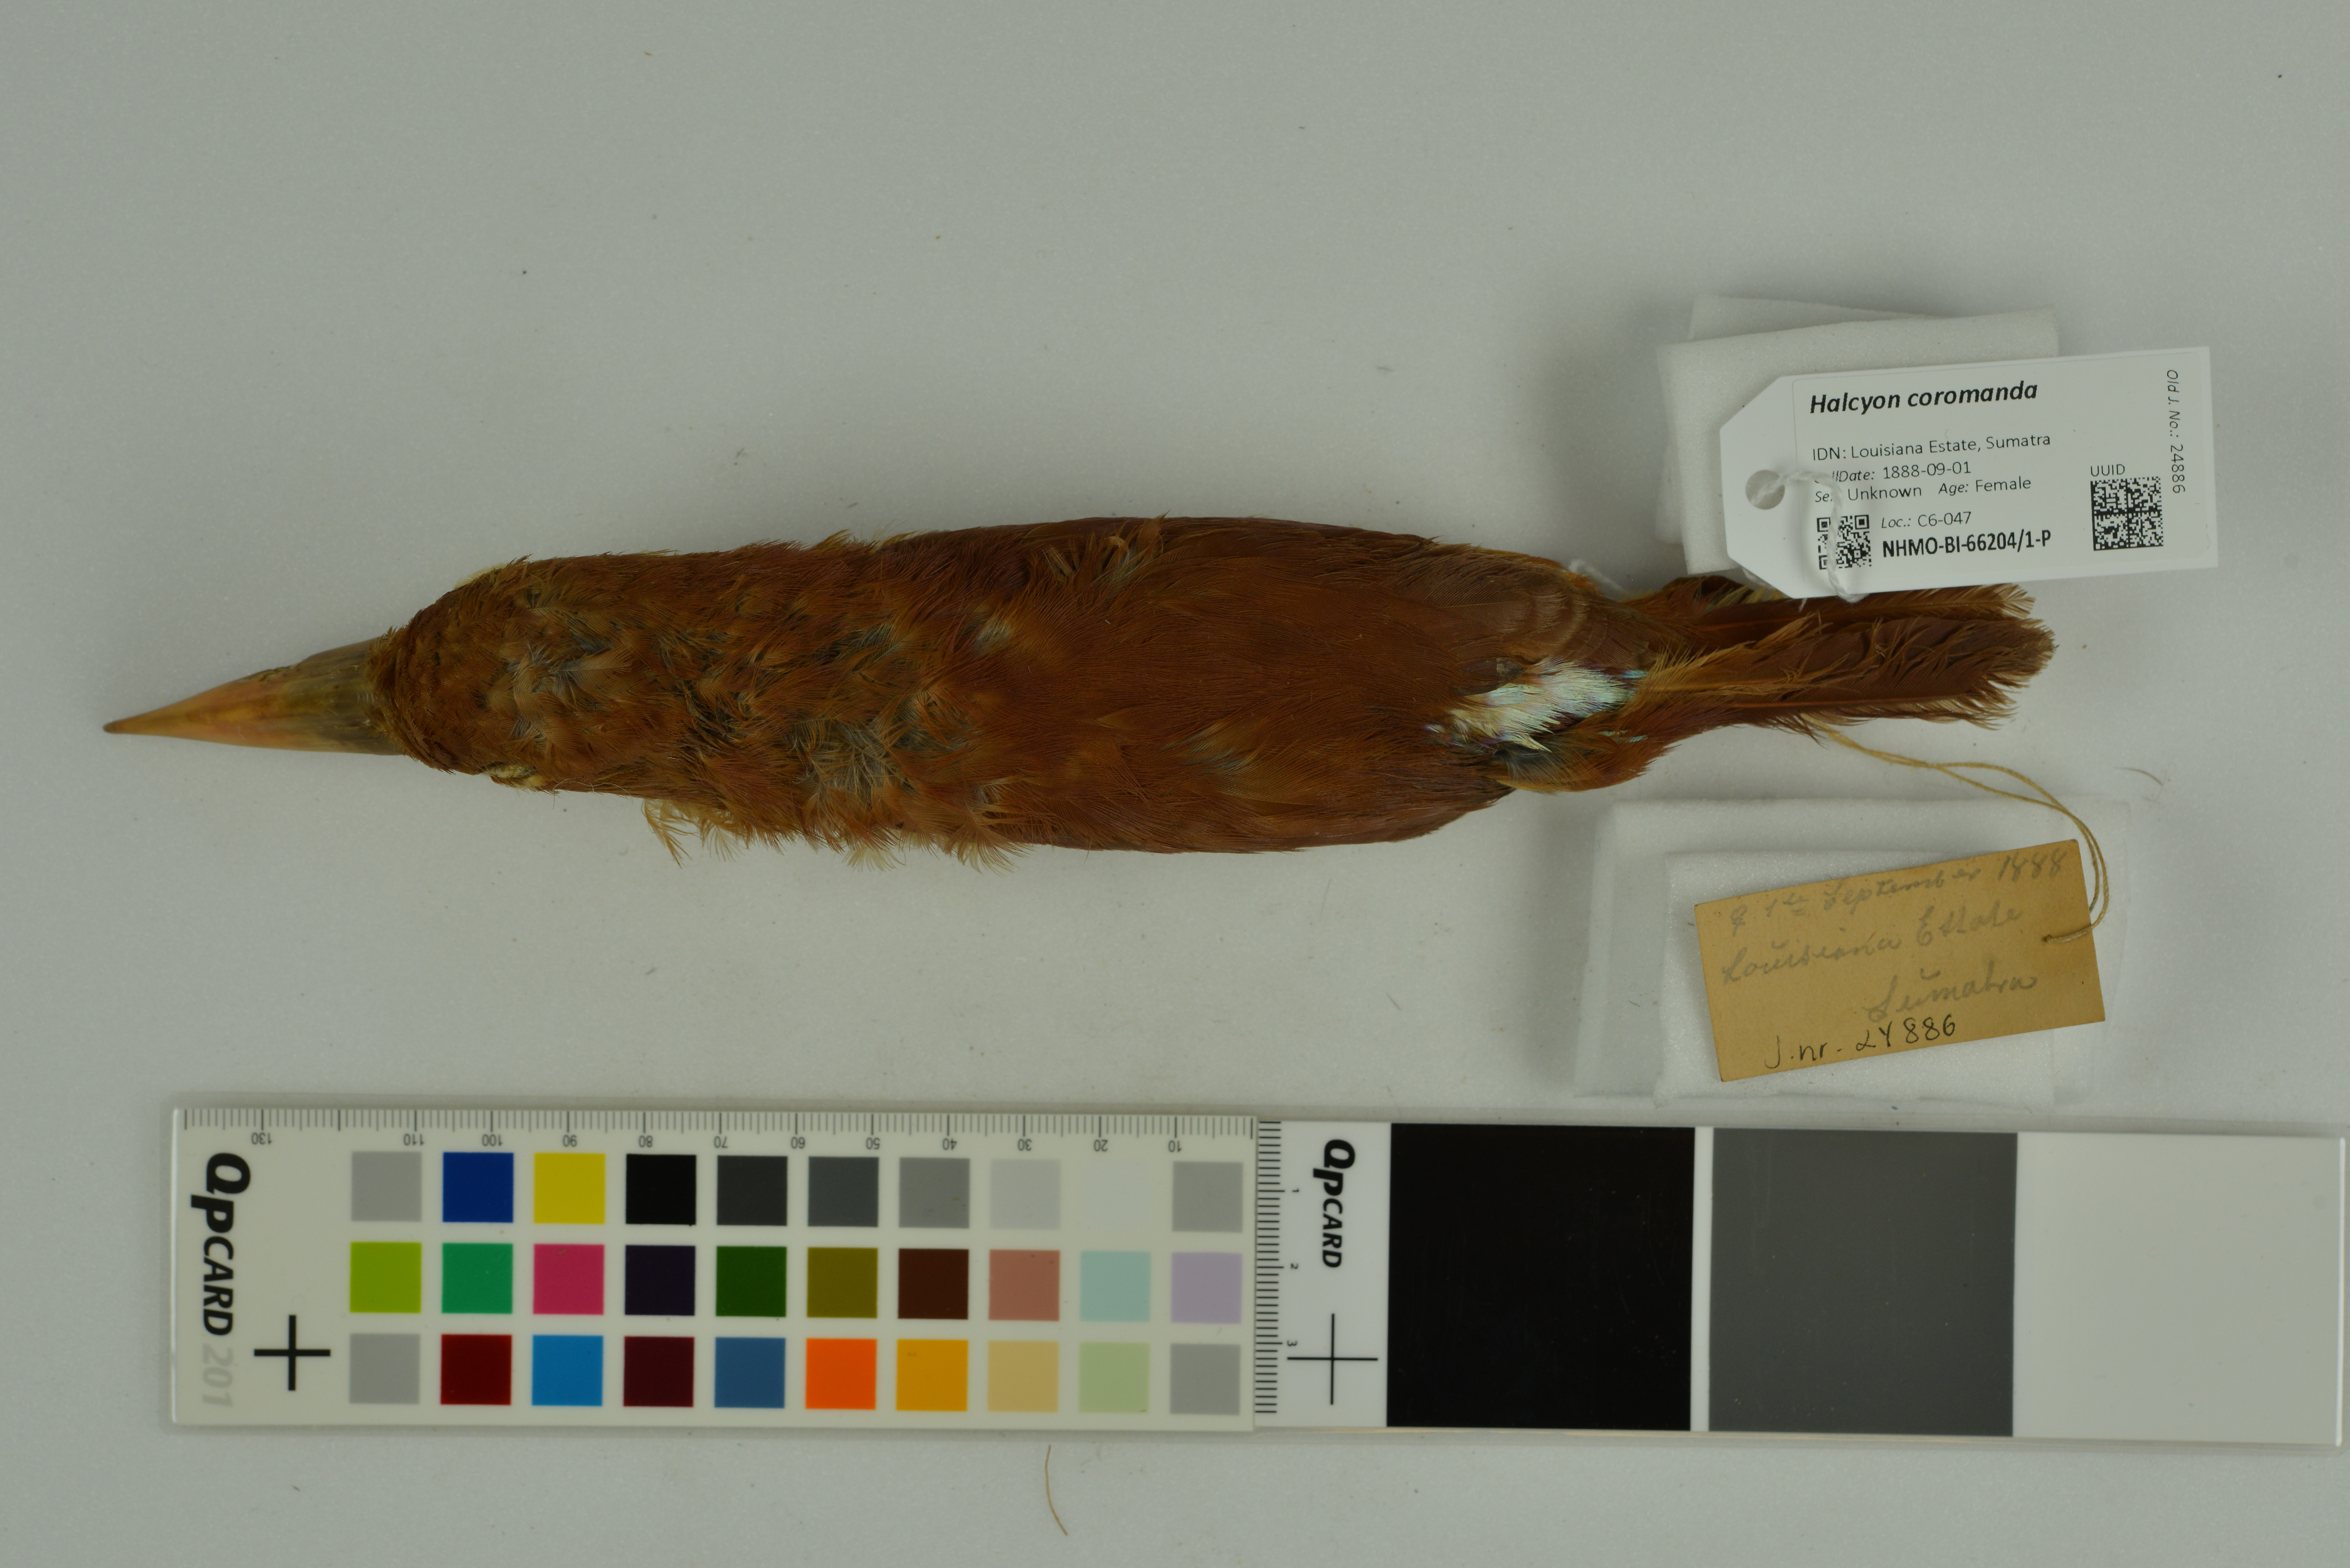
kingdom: Animalia
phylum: Chordata
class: Aves
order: Coraciiformes
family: Alcedinidae
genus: Halcyon
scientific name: Halcyon coromanda
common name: Ruddy kingfisher
